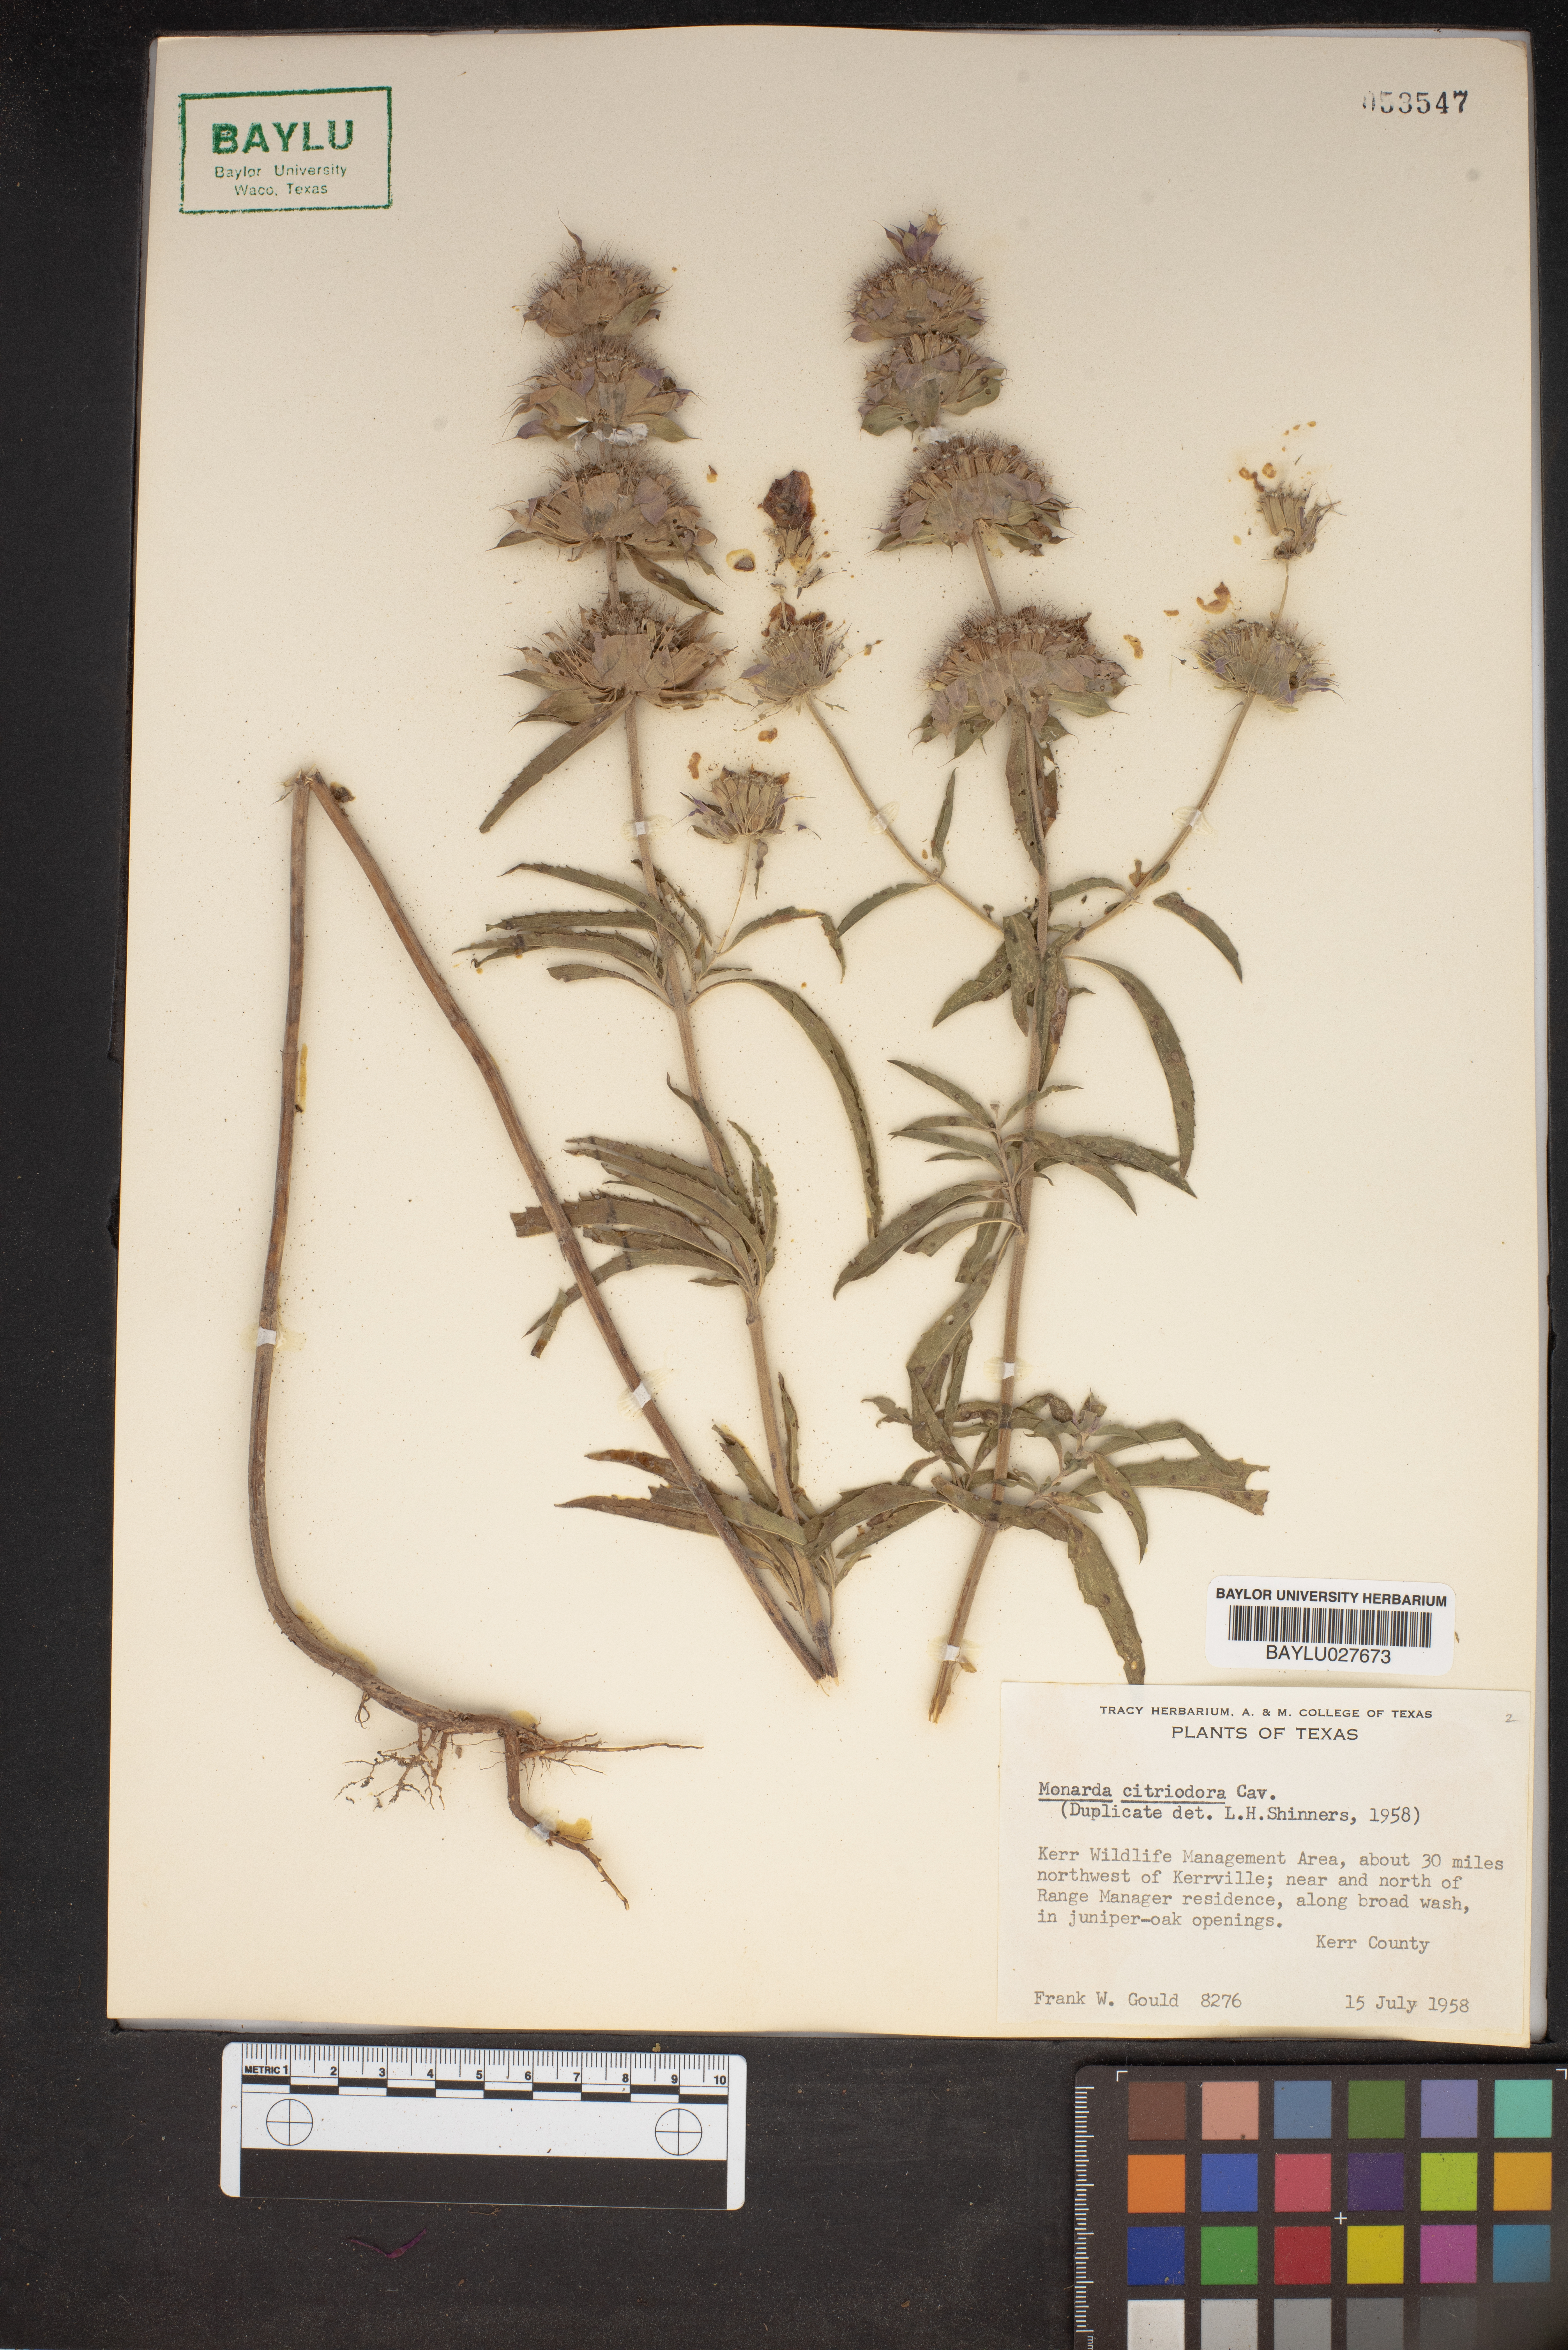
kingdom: Plantae
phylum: Tracheophyta
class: Magnoliopsida
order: Lamiales
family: Lamiaceae
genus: Monarda
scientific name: Monarda citriodora
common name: Lemon beebalm
